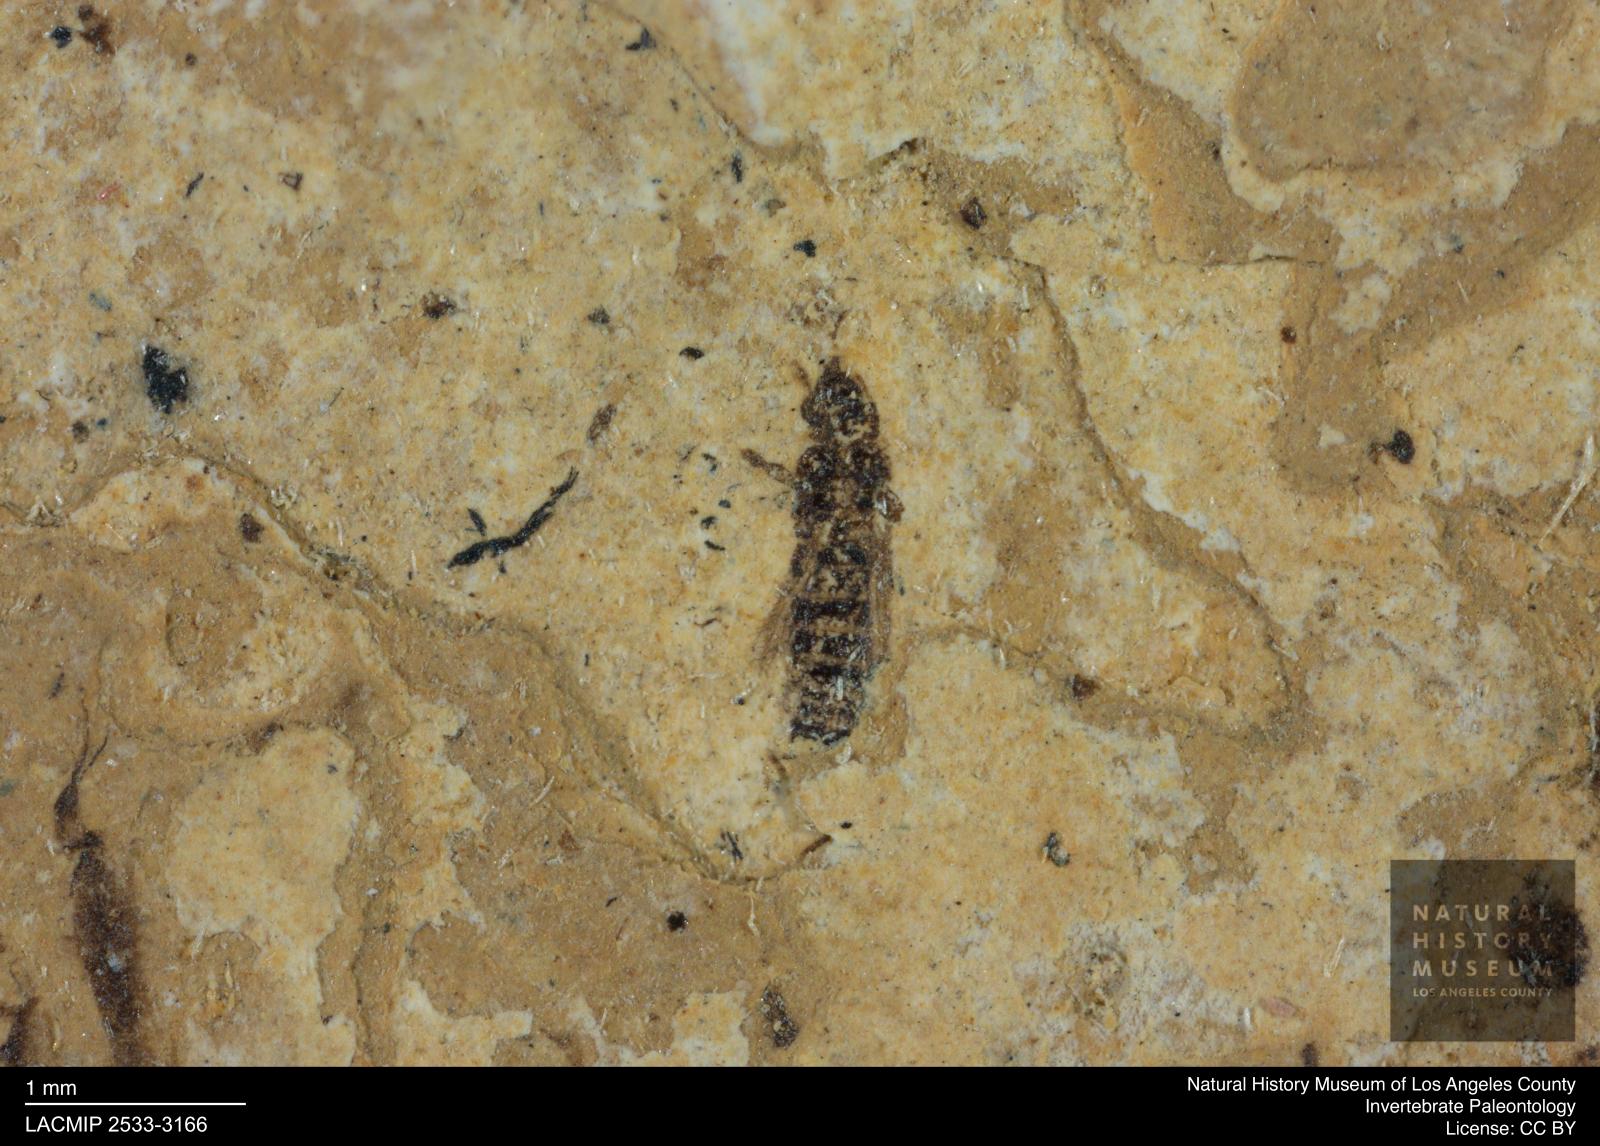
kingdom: Animalia
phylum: Arthropoda
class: Insecta
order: Thysanoptera
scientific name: Thysanoptera
